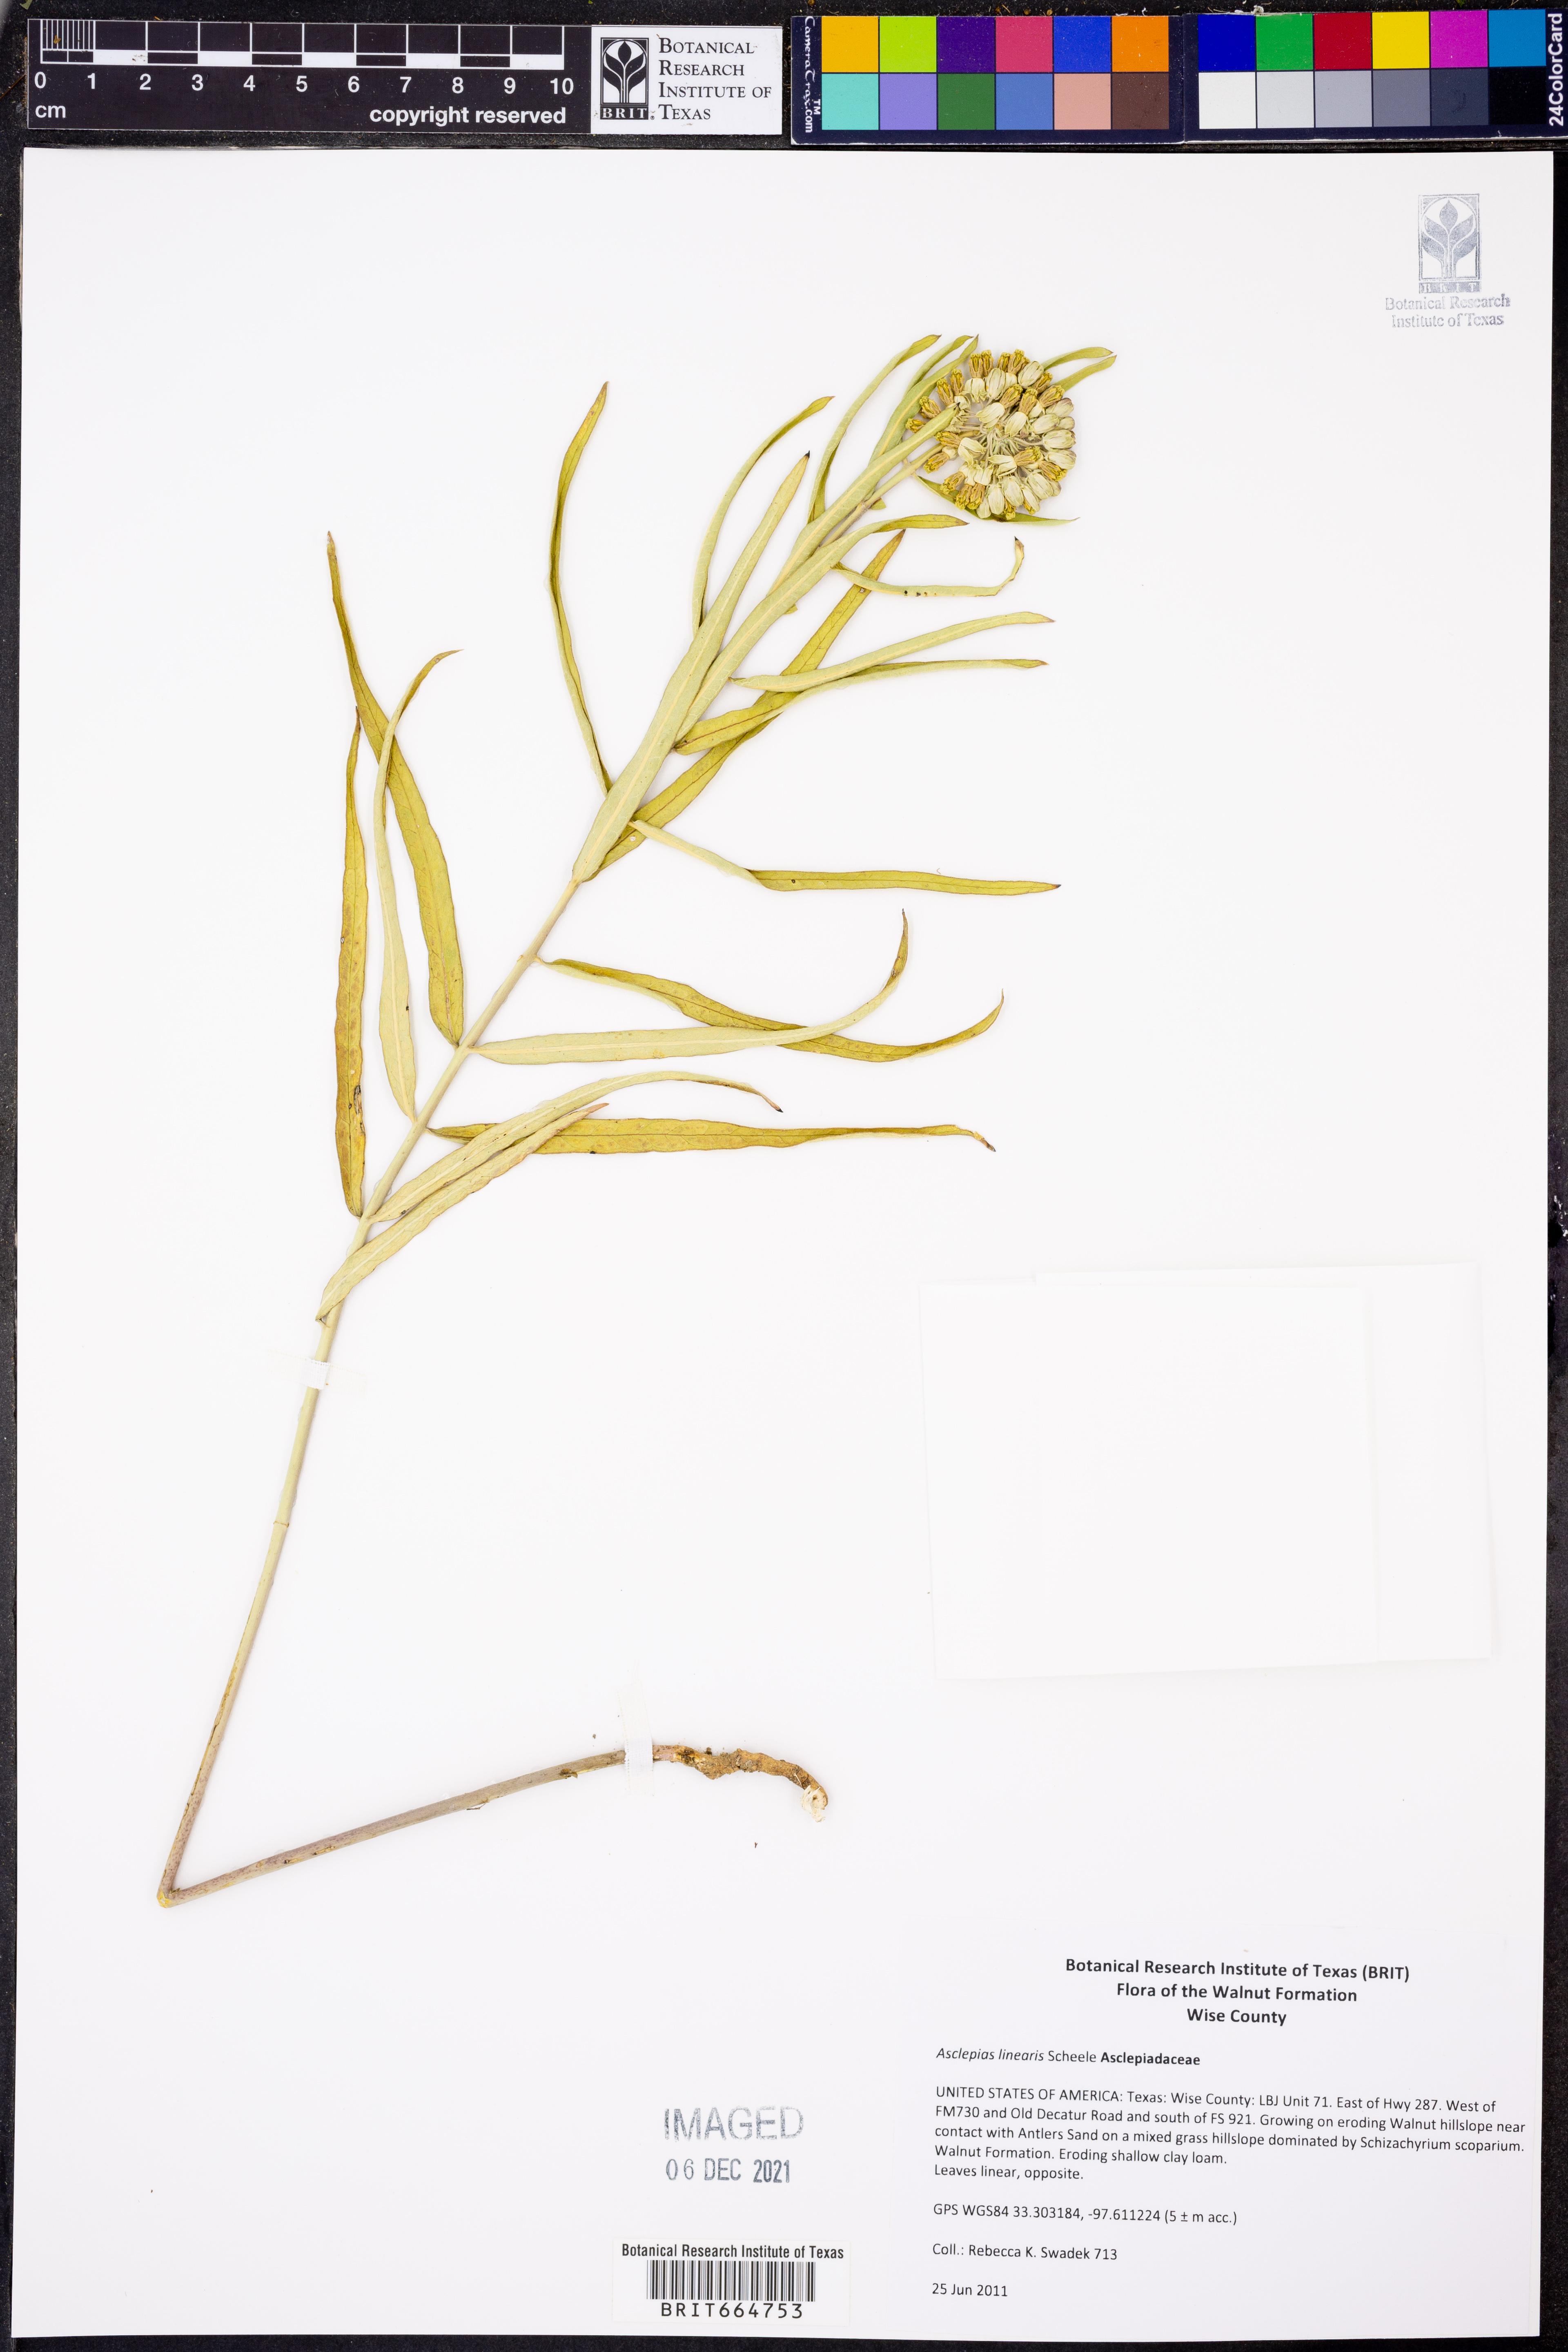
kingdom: Plantae
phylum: Tracheophyta
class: Magnoliopsida
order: Gentianales
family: Apocynaceae
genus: Asclepias
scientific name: Asclepias verticillata
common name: Eastern whorled milkweed
